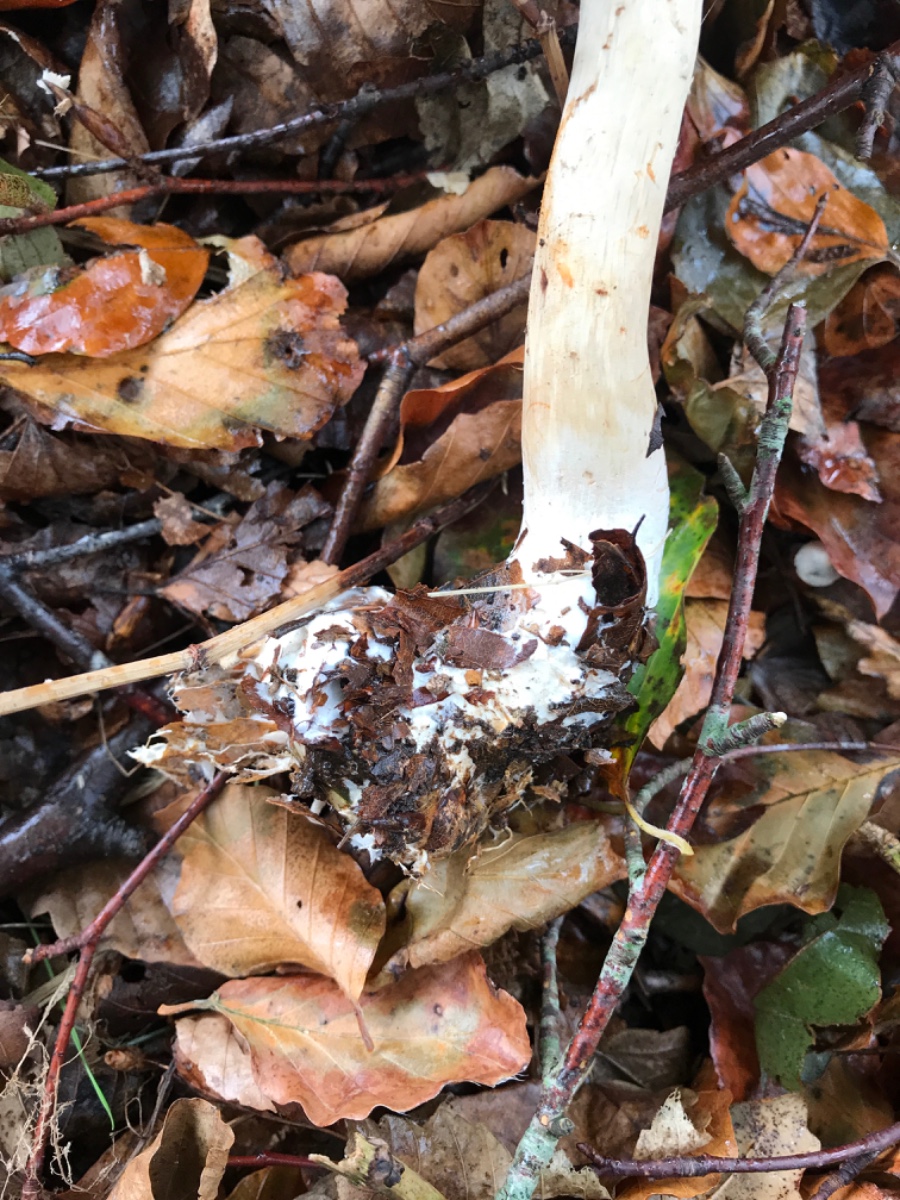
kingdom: Fungi
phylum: Basidiomycota
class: Agaricomycetes
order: Agaricales
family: Agaricaceae
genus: Chlorophyllum
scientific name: Chlorophyllum olivieri
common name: almindelig rabarberhat
